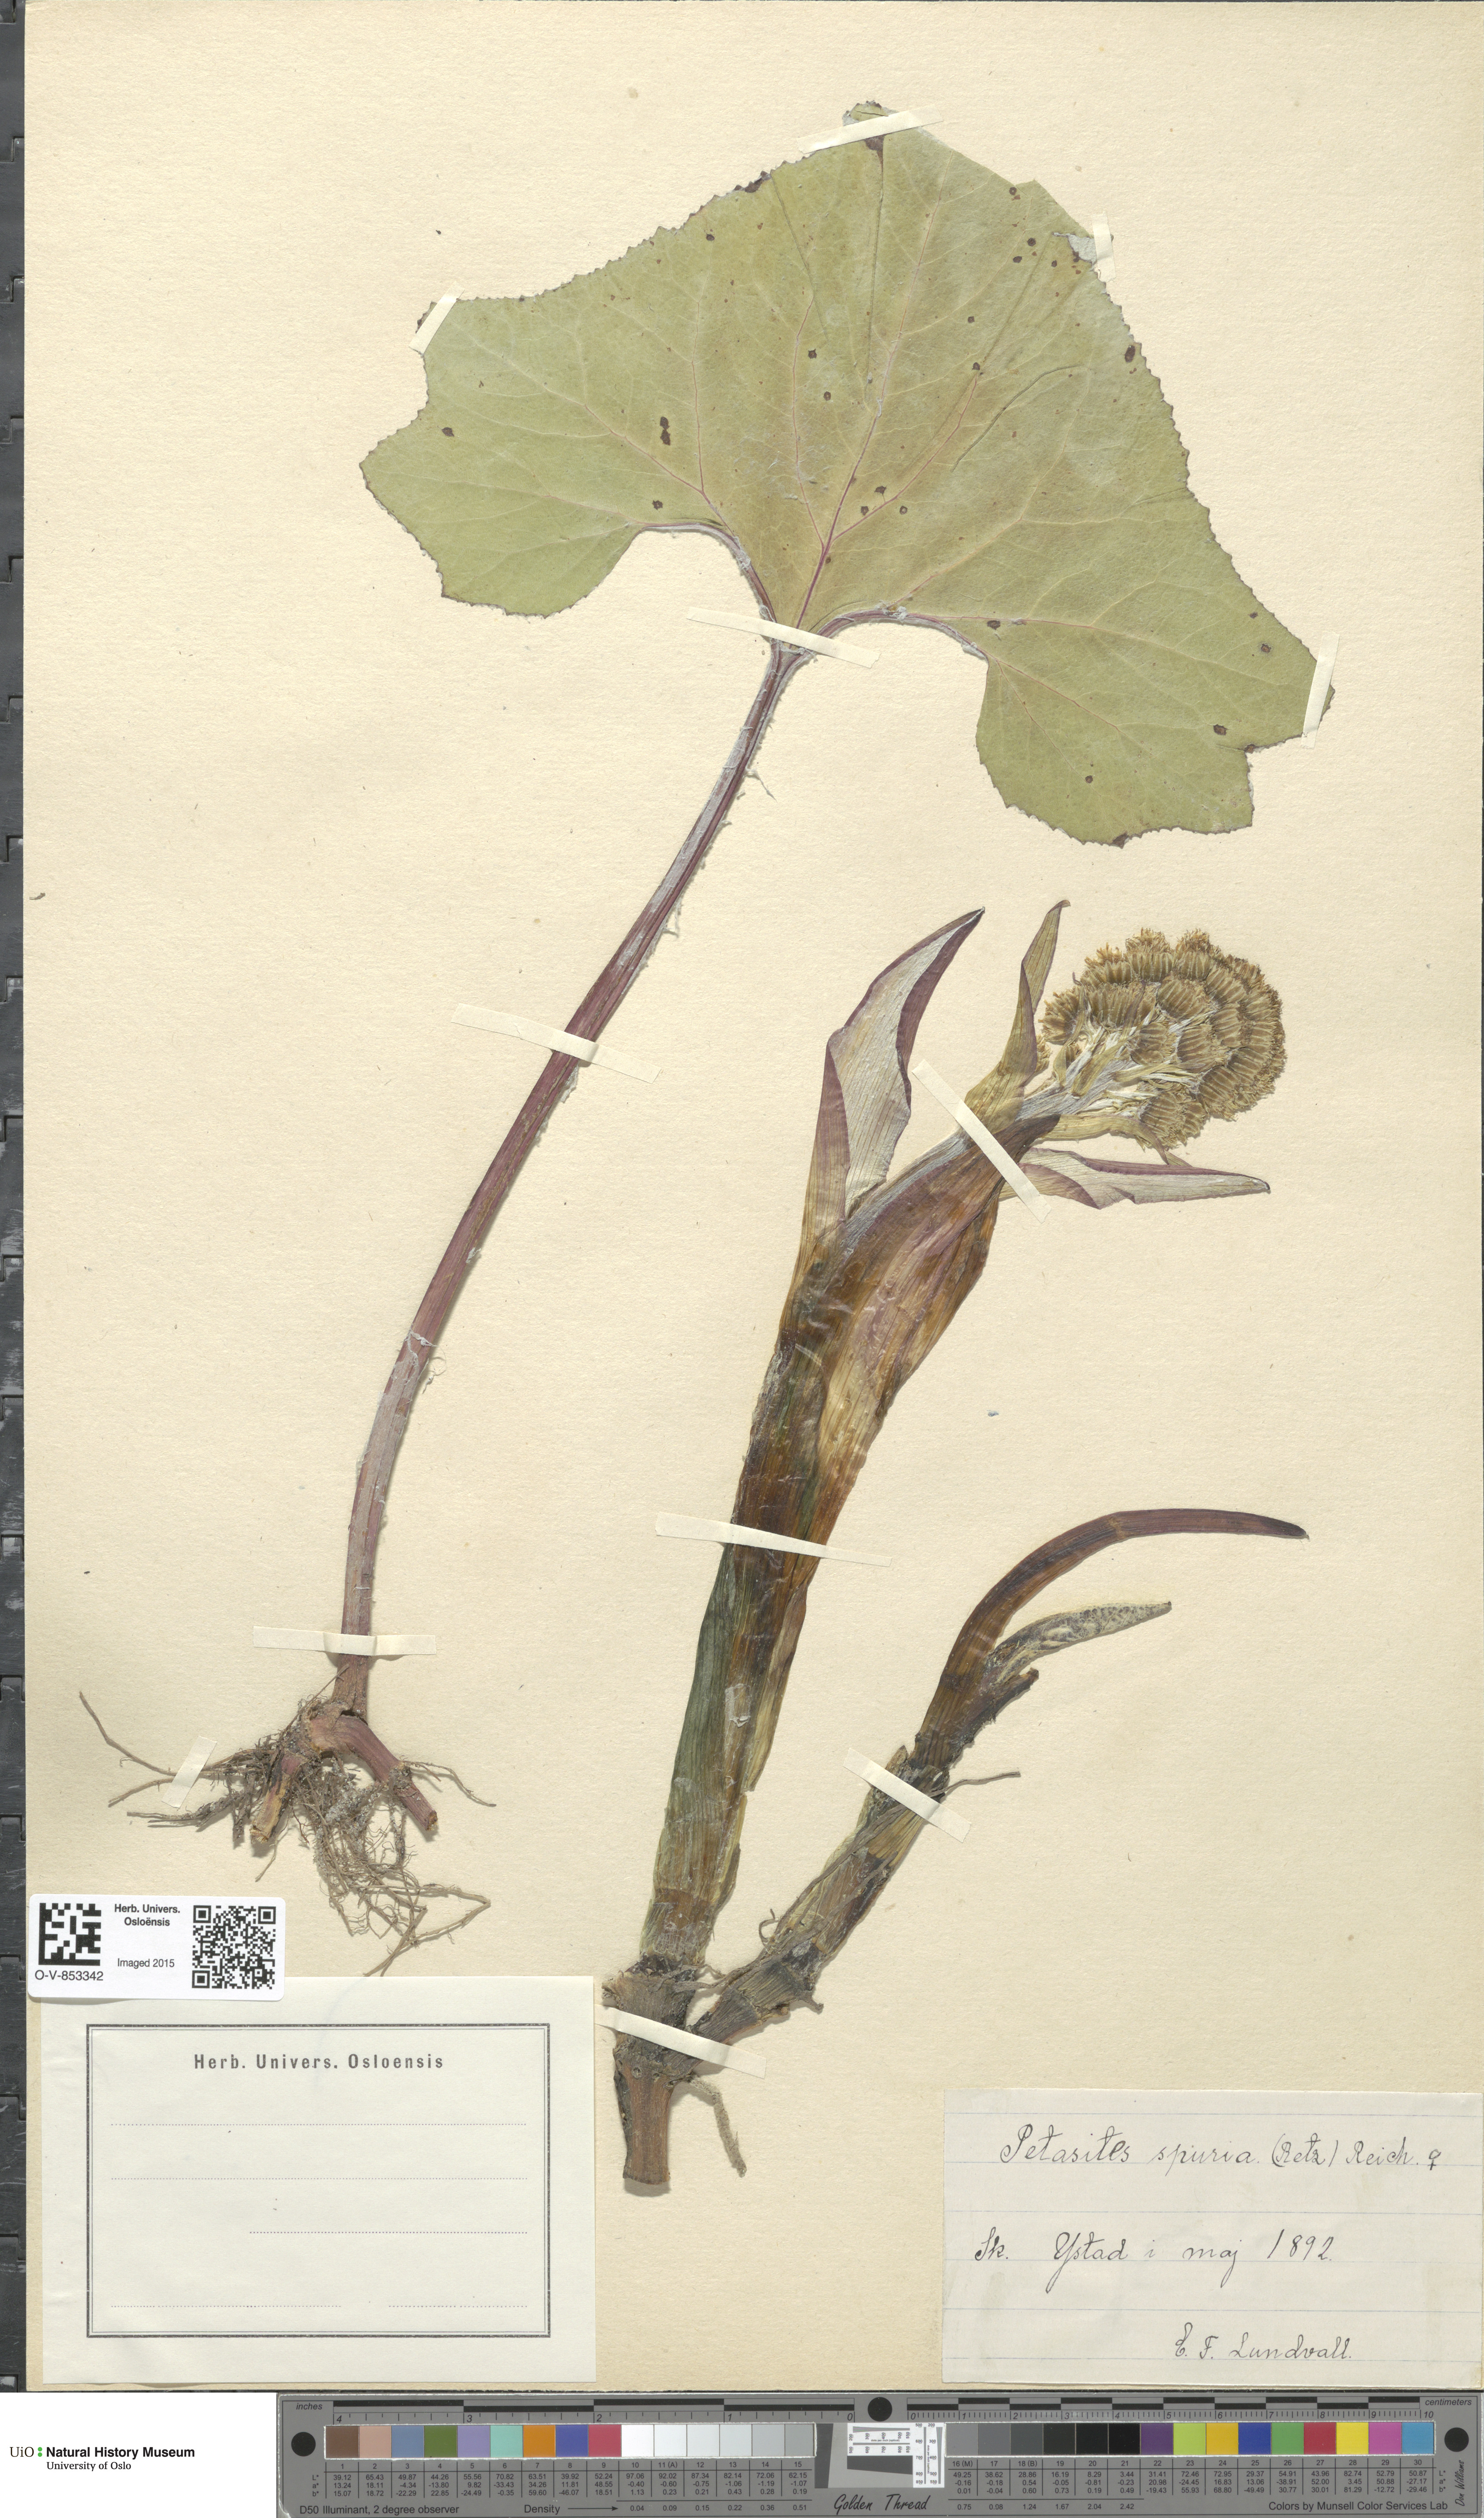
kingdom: Plantae
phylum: Tracheophyta
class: Magnoliopsida
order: Asterales
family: Asteraceae
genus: Petasites
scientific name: Petasites spurius
